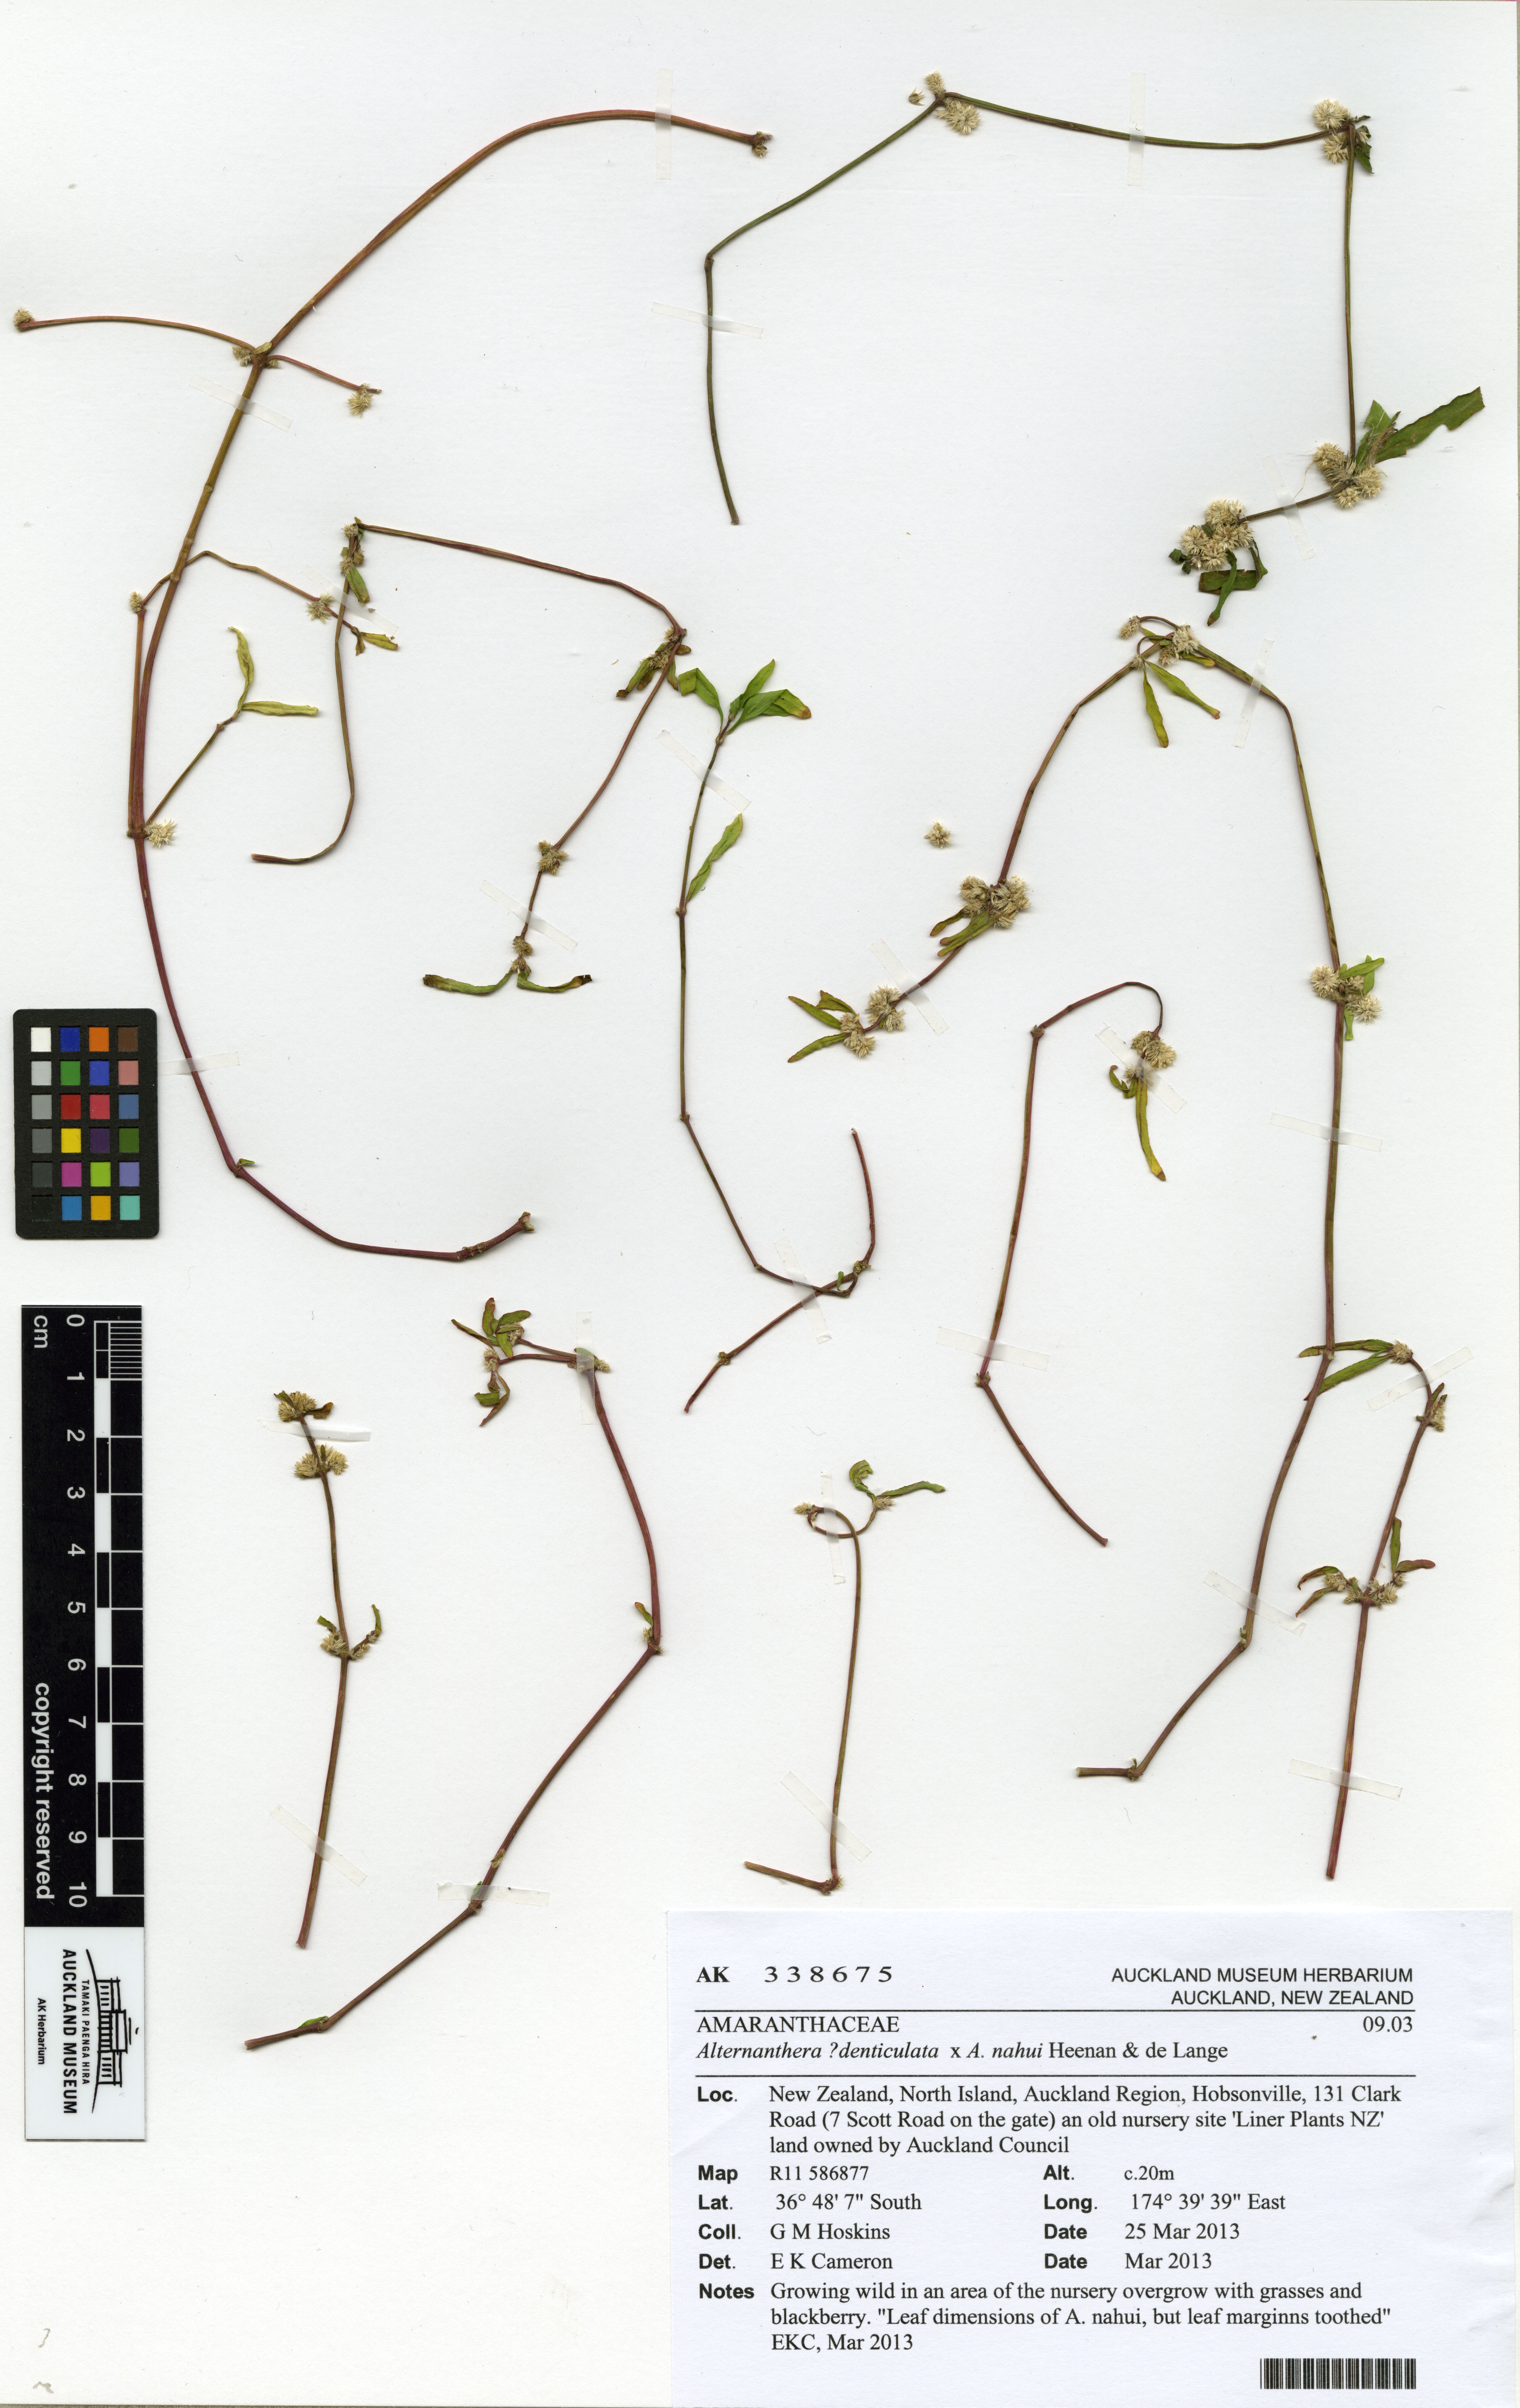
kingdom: Plantae
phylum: Tracheophyta
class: Magnoliopsida
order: Caryophyllales
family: Amaranthaceae
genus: Alternanthera
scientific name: Alternanthera
